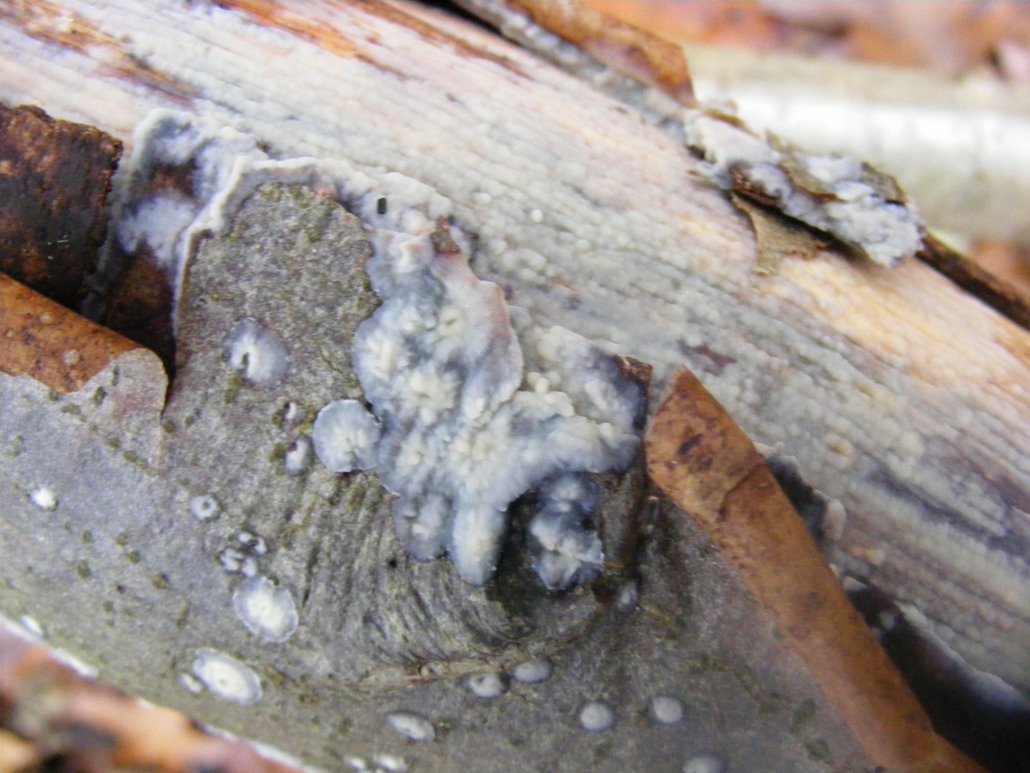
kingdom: Fungi
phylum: Basidiomycota
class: Agaricomycetes
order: Agaricales
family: Radulomycetaceae
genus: Radulomyces
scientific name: Radulomyces confluens
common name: glat naftalinskind
